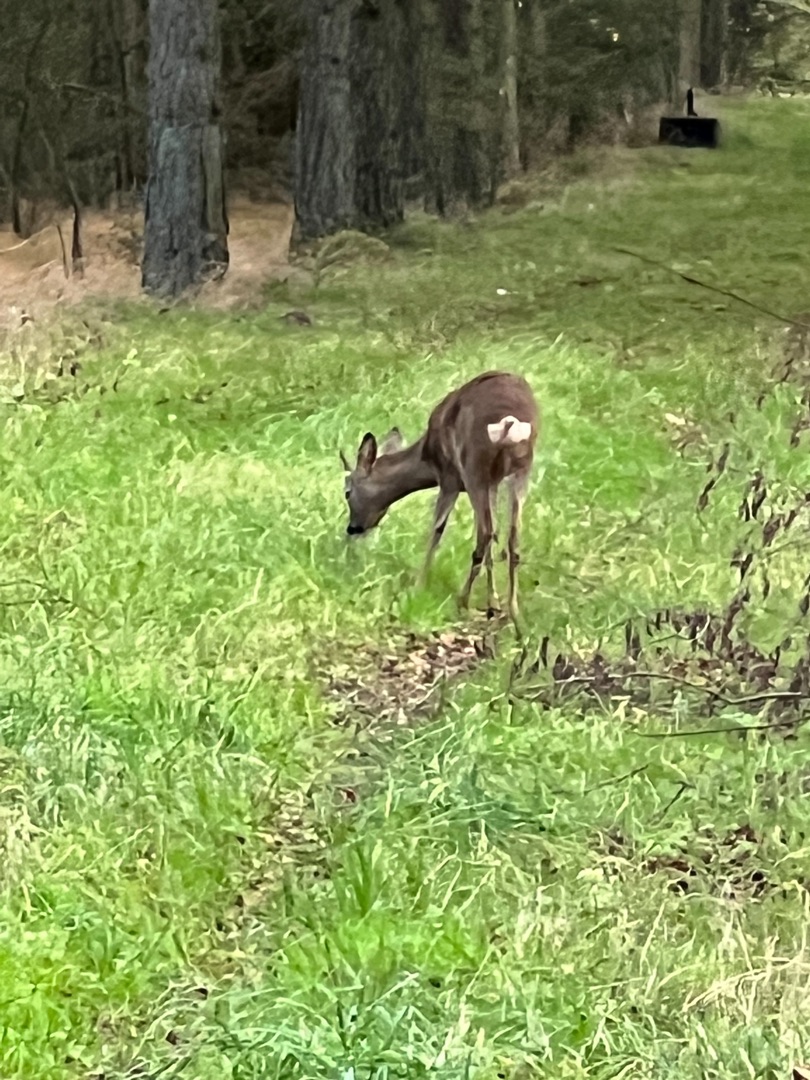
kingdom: Animalia
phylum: Chordata
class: Mammalia
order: Artiodactyla
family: Cervidae
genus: Capreolus
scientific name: Capreolus capreolus
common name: Rådyr
